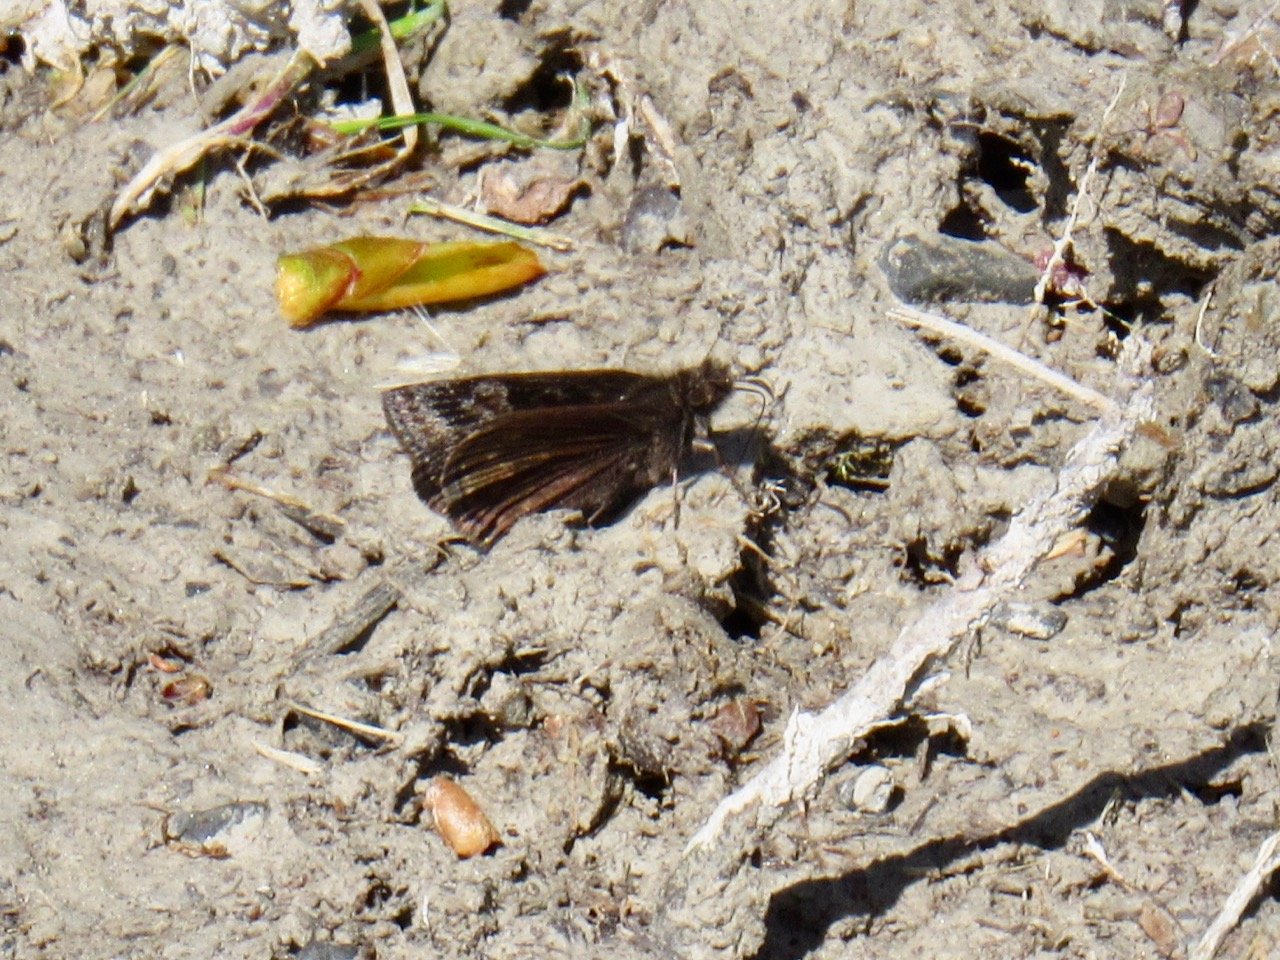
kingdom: Animalia
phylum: Arthropoda
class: Insecta
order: Lepidoptera
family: Hesperiidae
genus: Gesta
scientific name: Gesta
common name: Wild Indigo Duskywing
